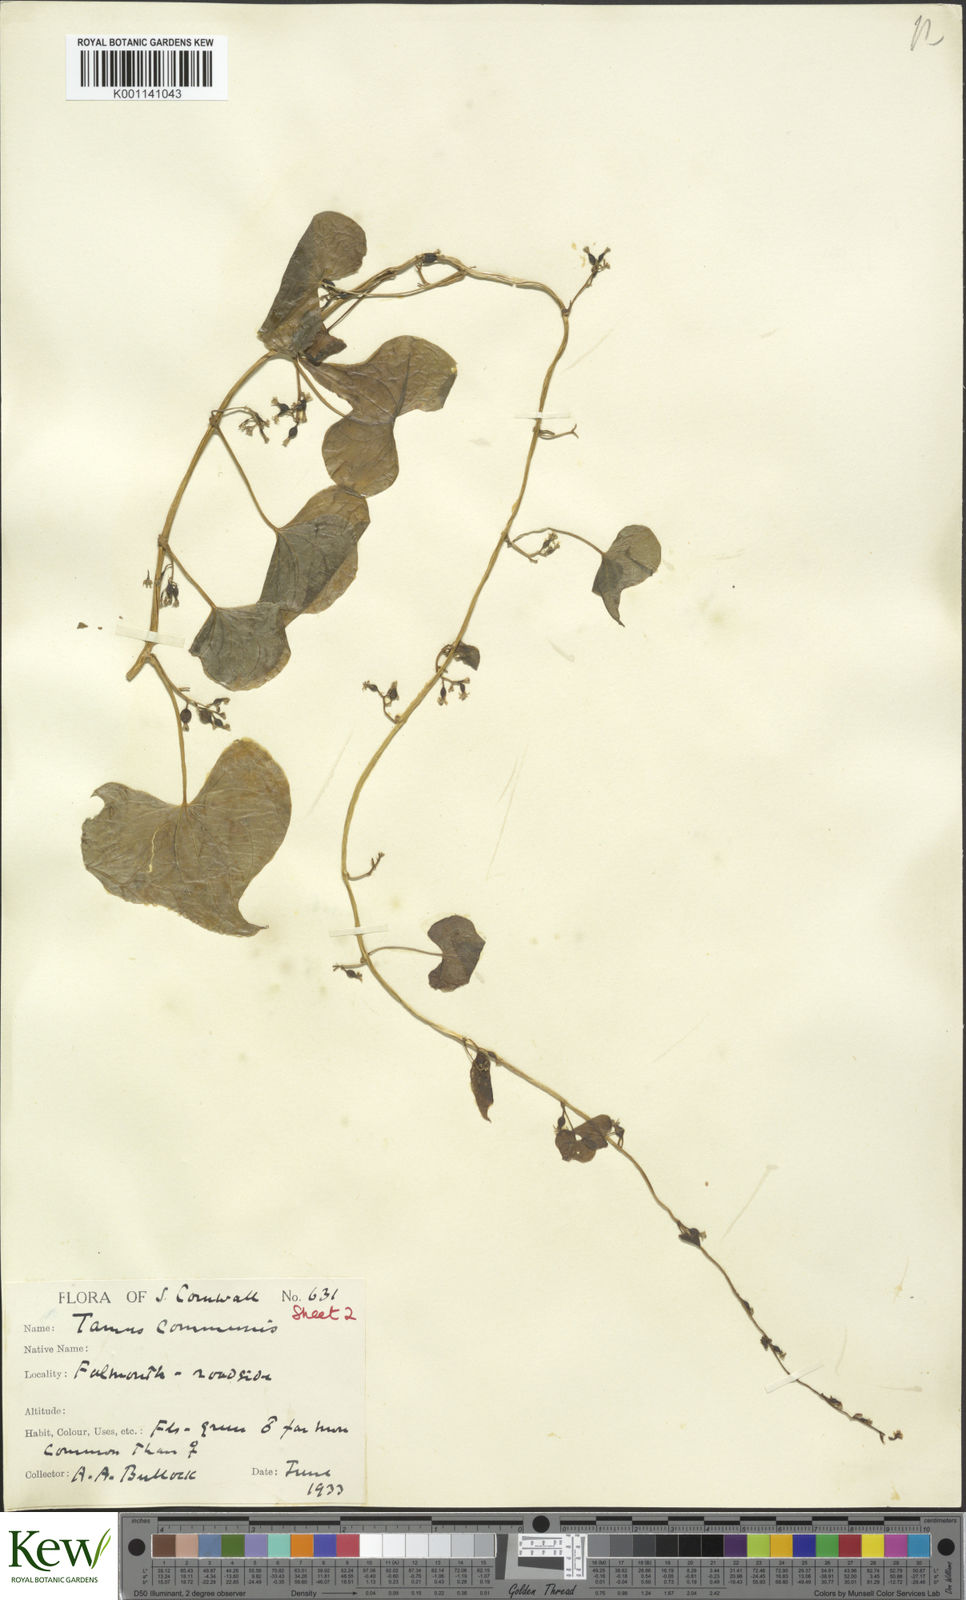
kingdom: Plantae
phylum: Tracheophyta
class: Liliopsida
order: Dioscoreales
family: Dioscoreaceae
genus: Dioscorea
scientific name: Dioscorea communis
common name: Black-bindweed
